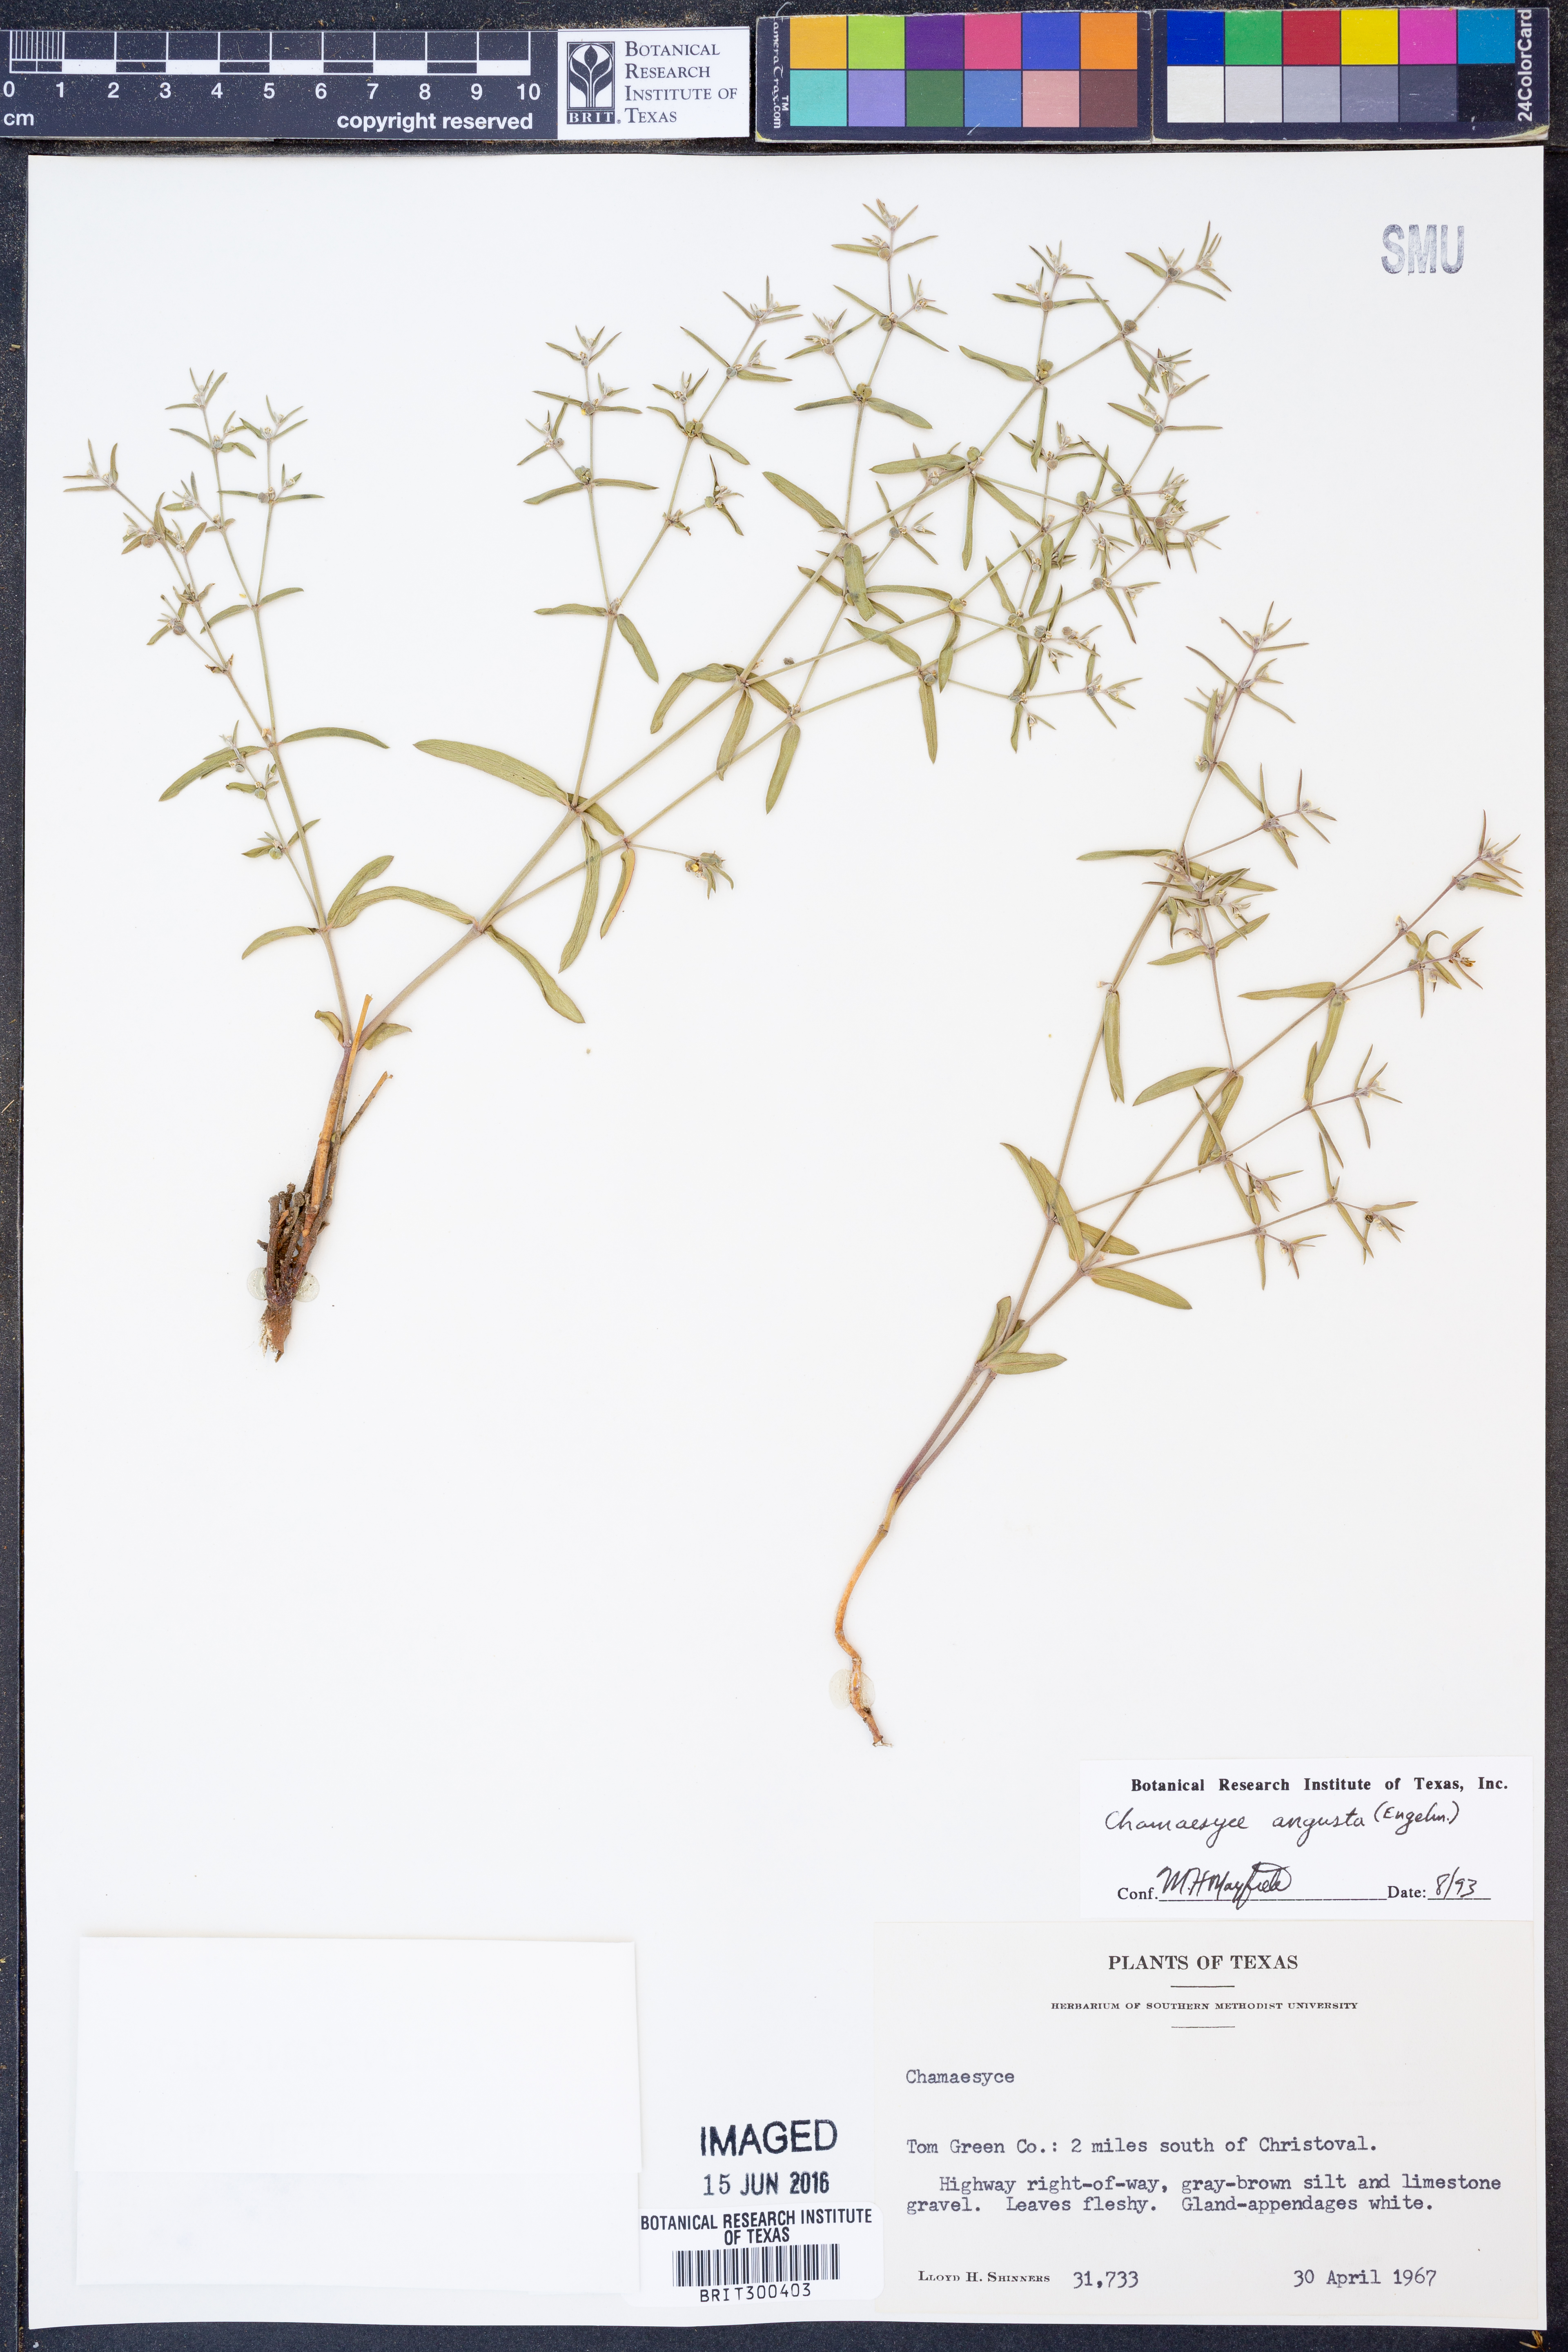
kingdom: Plantae
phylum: Tracheophyta
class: Magnoliopsida
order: Malpighiales
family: Euphorbiaceae
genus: Euphorbia
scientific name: Euphorbia angusta
